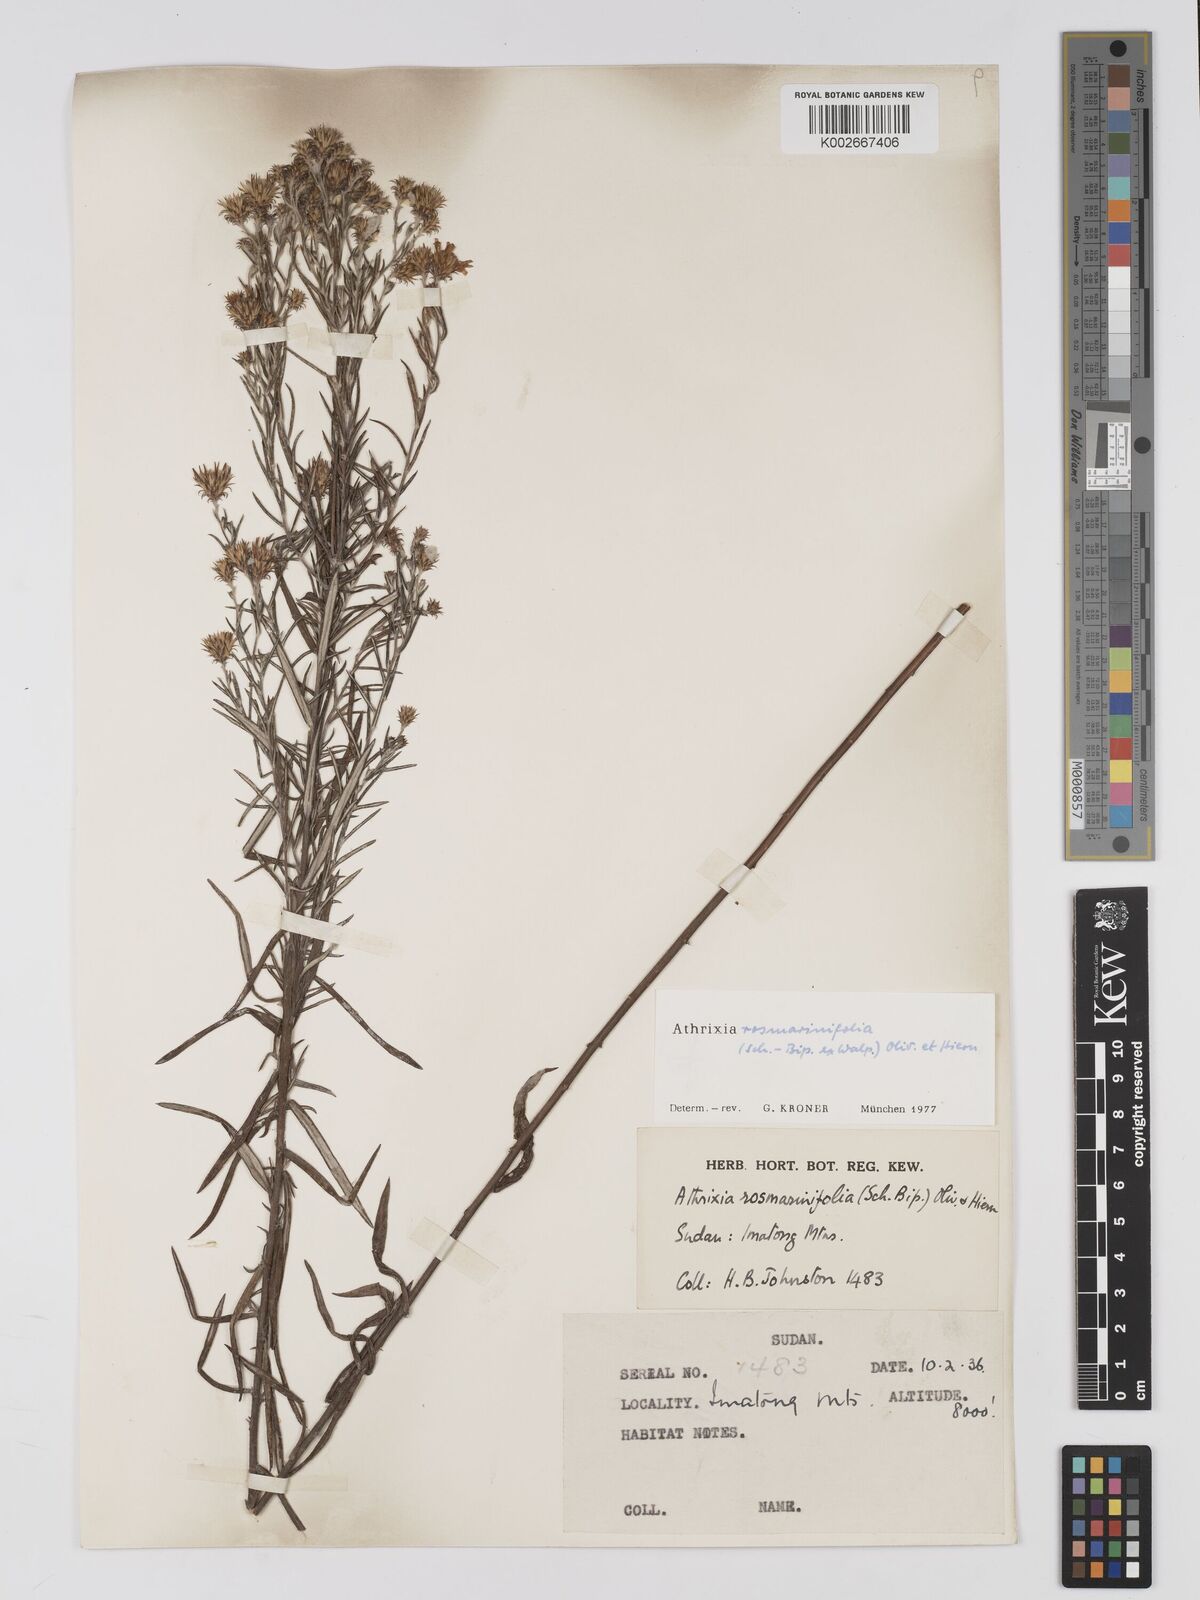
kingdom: Plantae
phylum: Tracheophyta
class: Magnoliopsida
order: Asterales
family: Asteraceae
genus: Athrixia
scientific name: Athrixia rosmarinifolia
